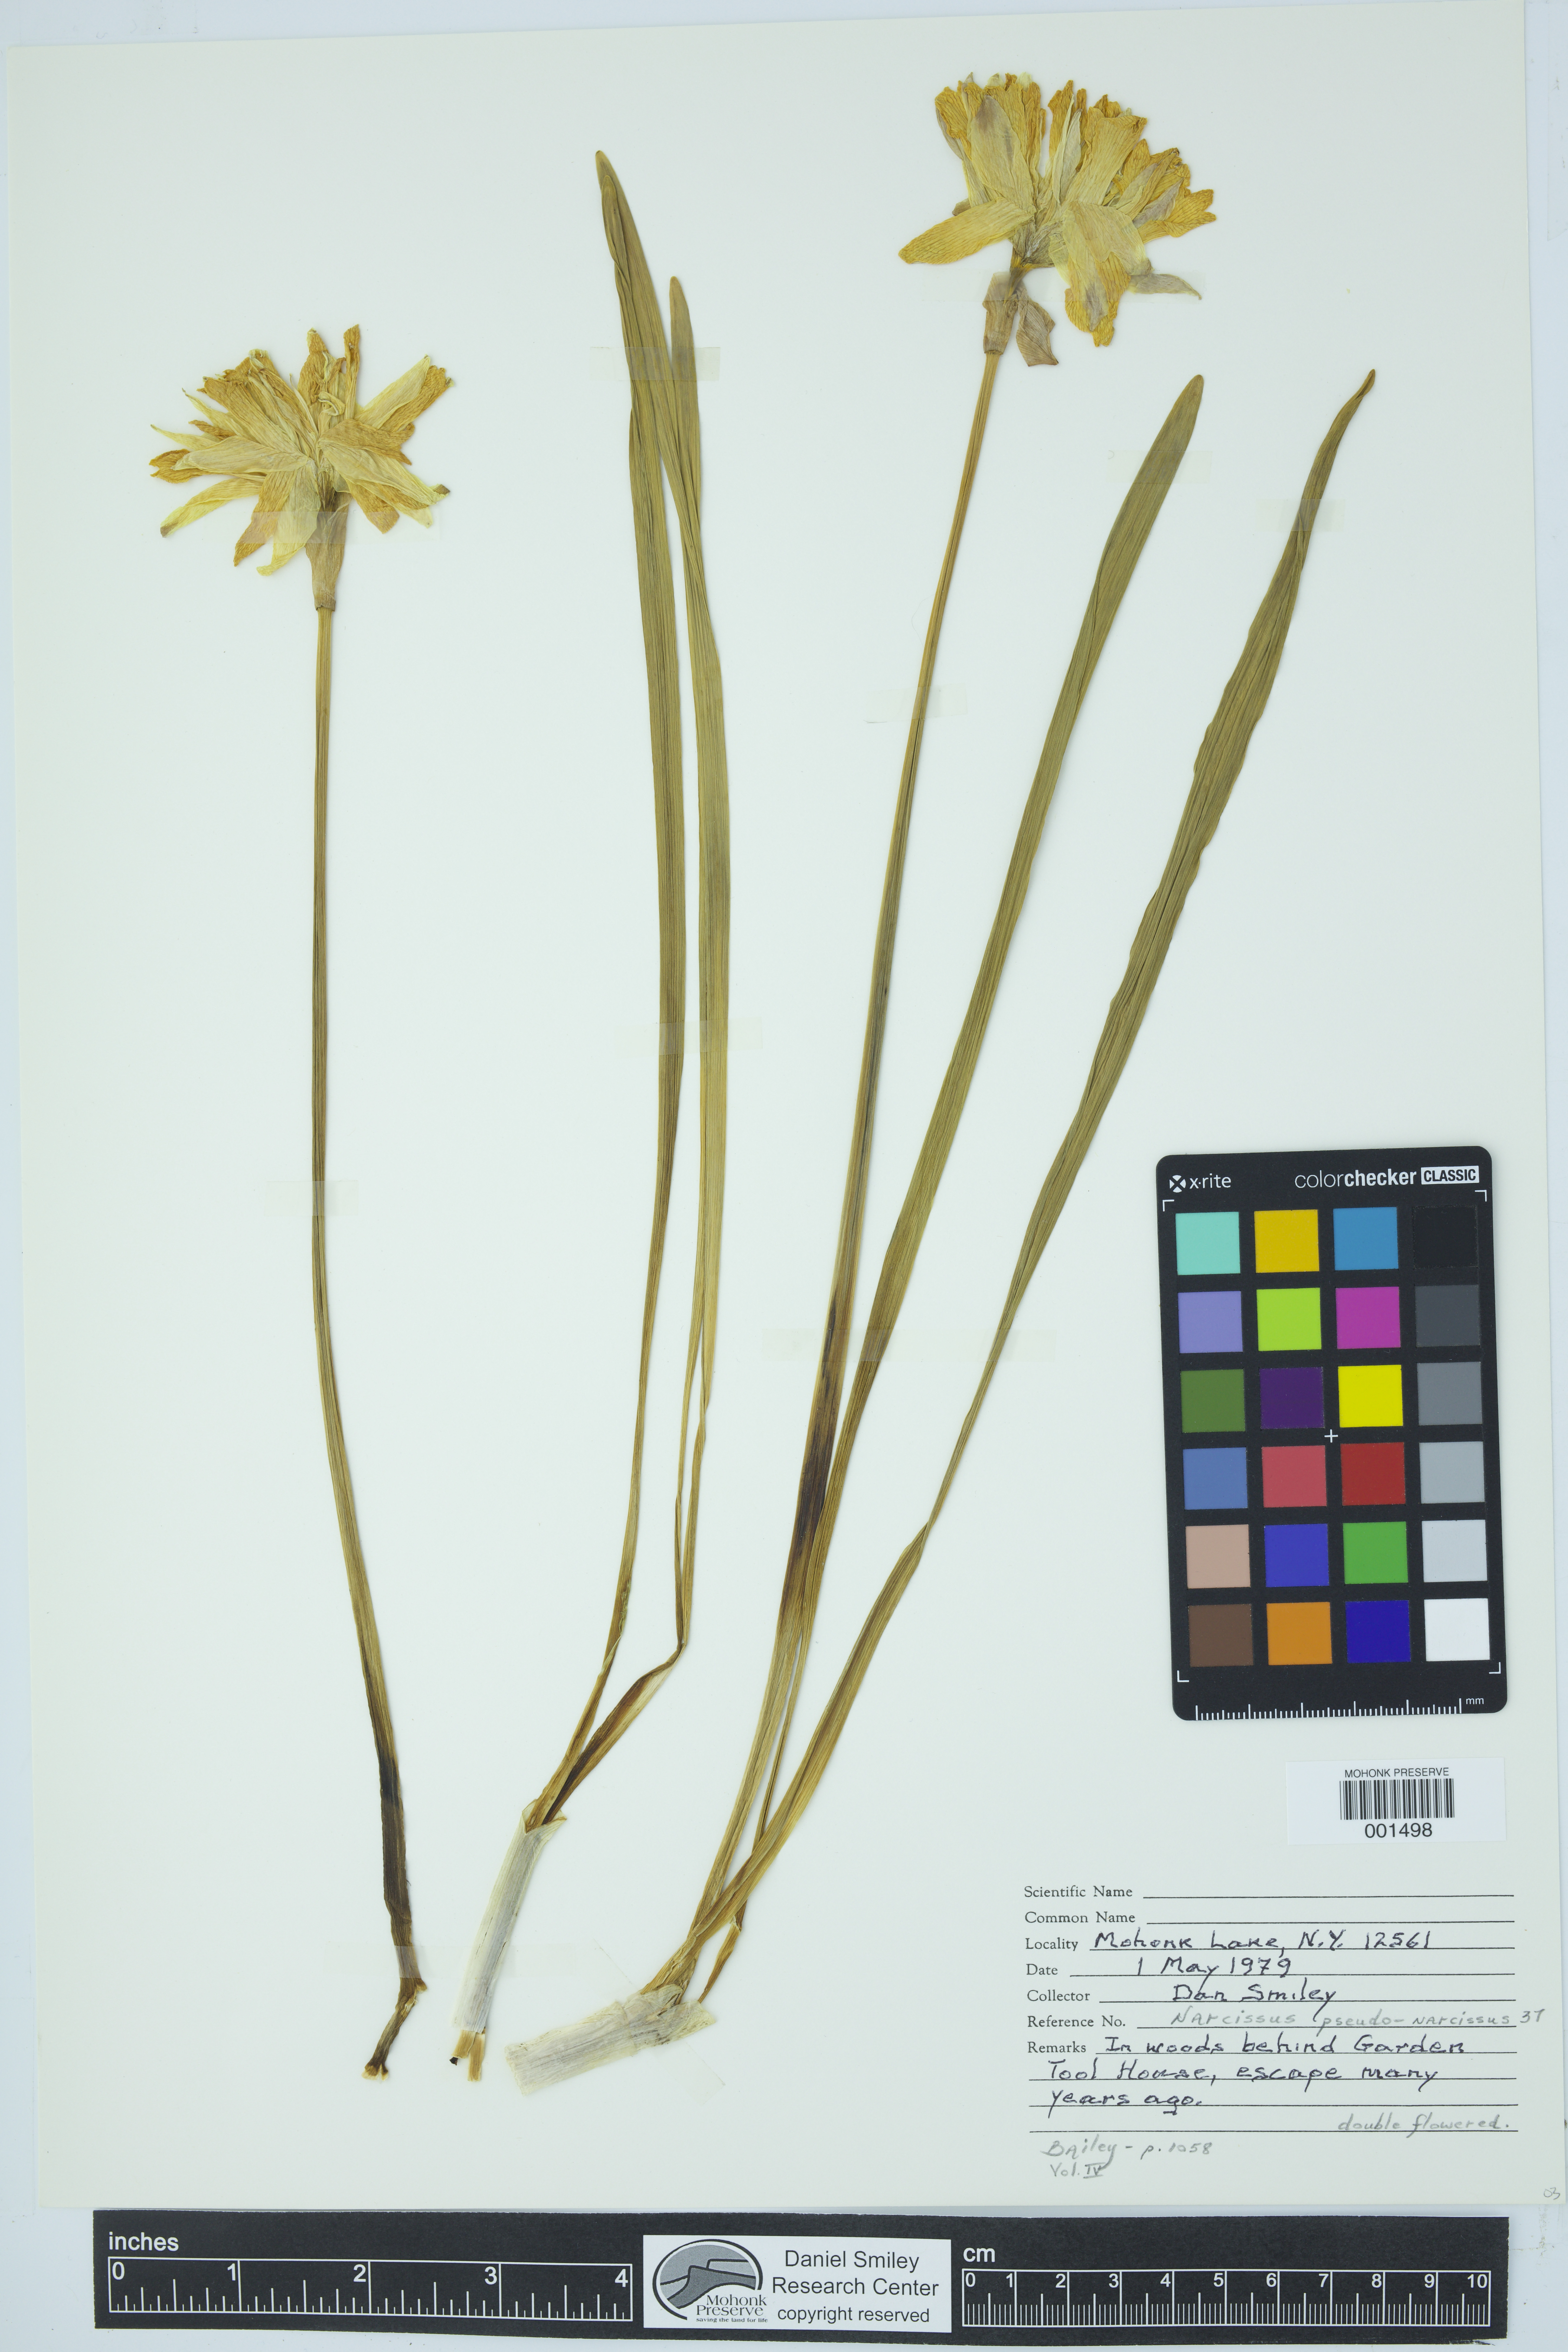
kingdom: Plantae
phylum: Tracheophyta
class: Liliopsida
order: Asparagales
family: Amaryllidaceae
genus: Narcissus
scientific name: Narcissus pseudonarcissus
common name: Daffodil
